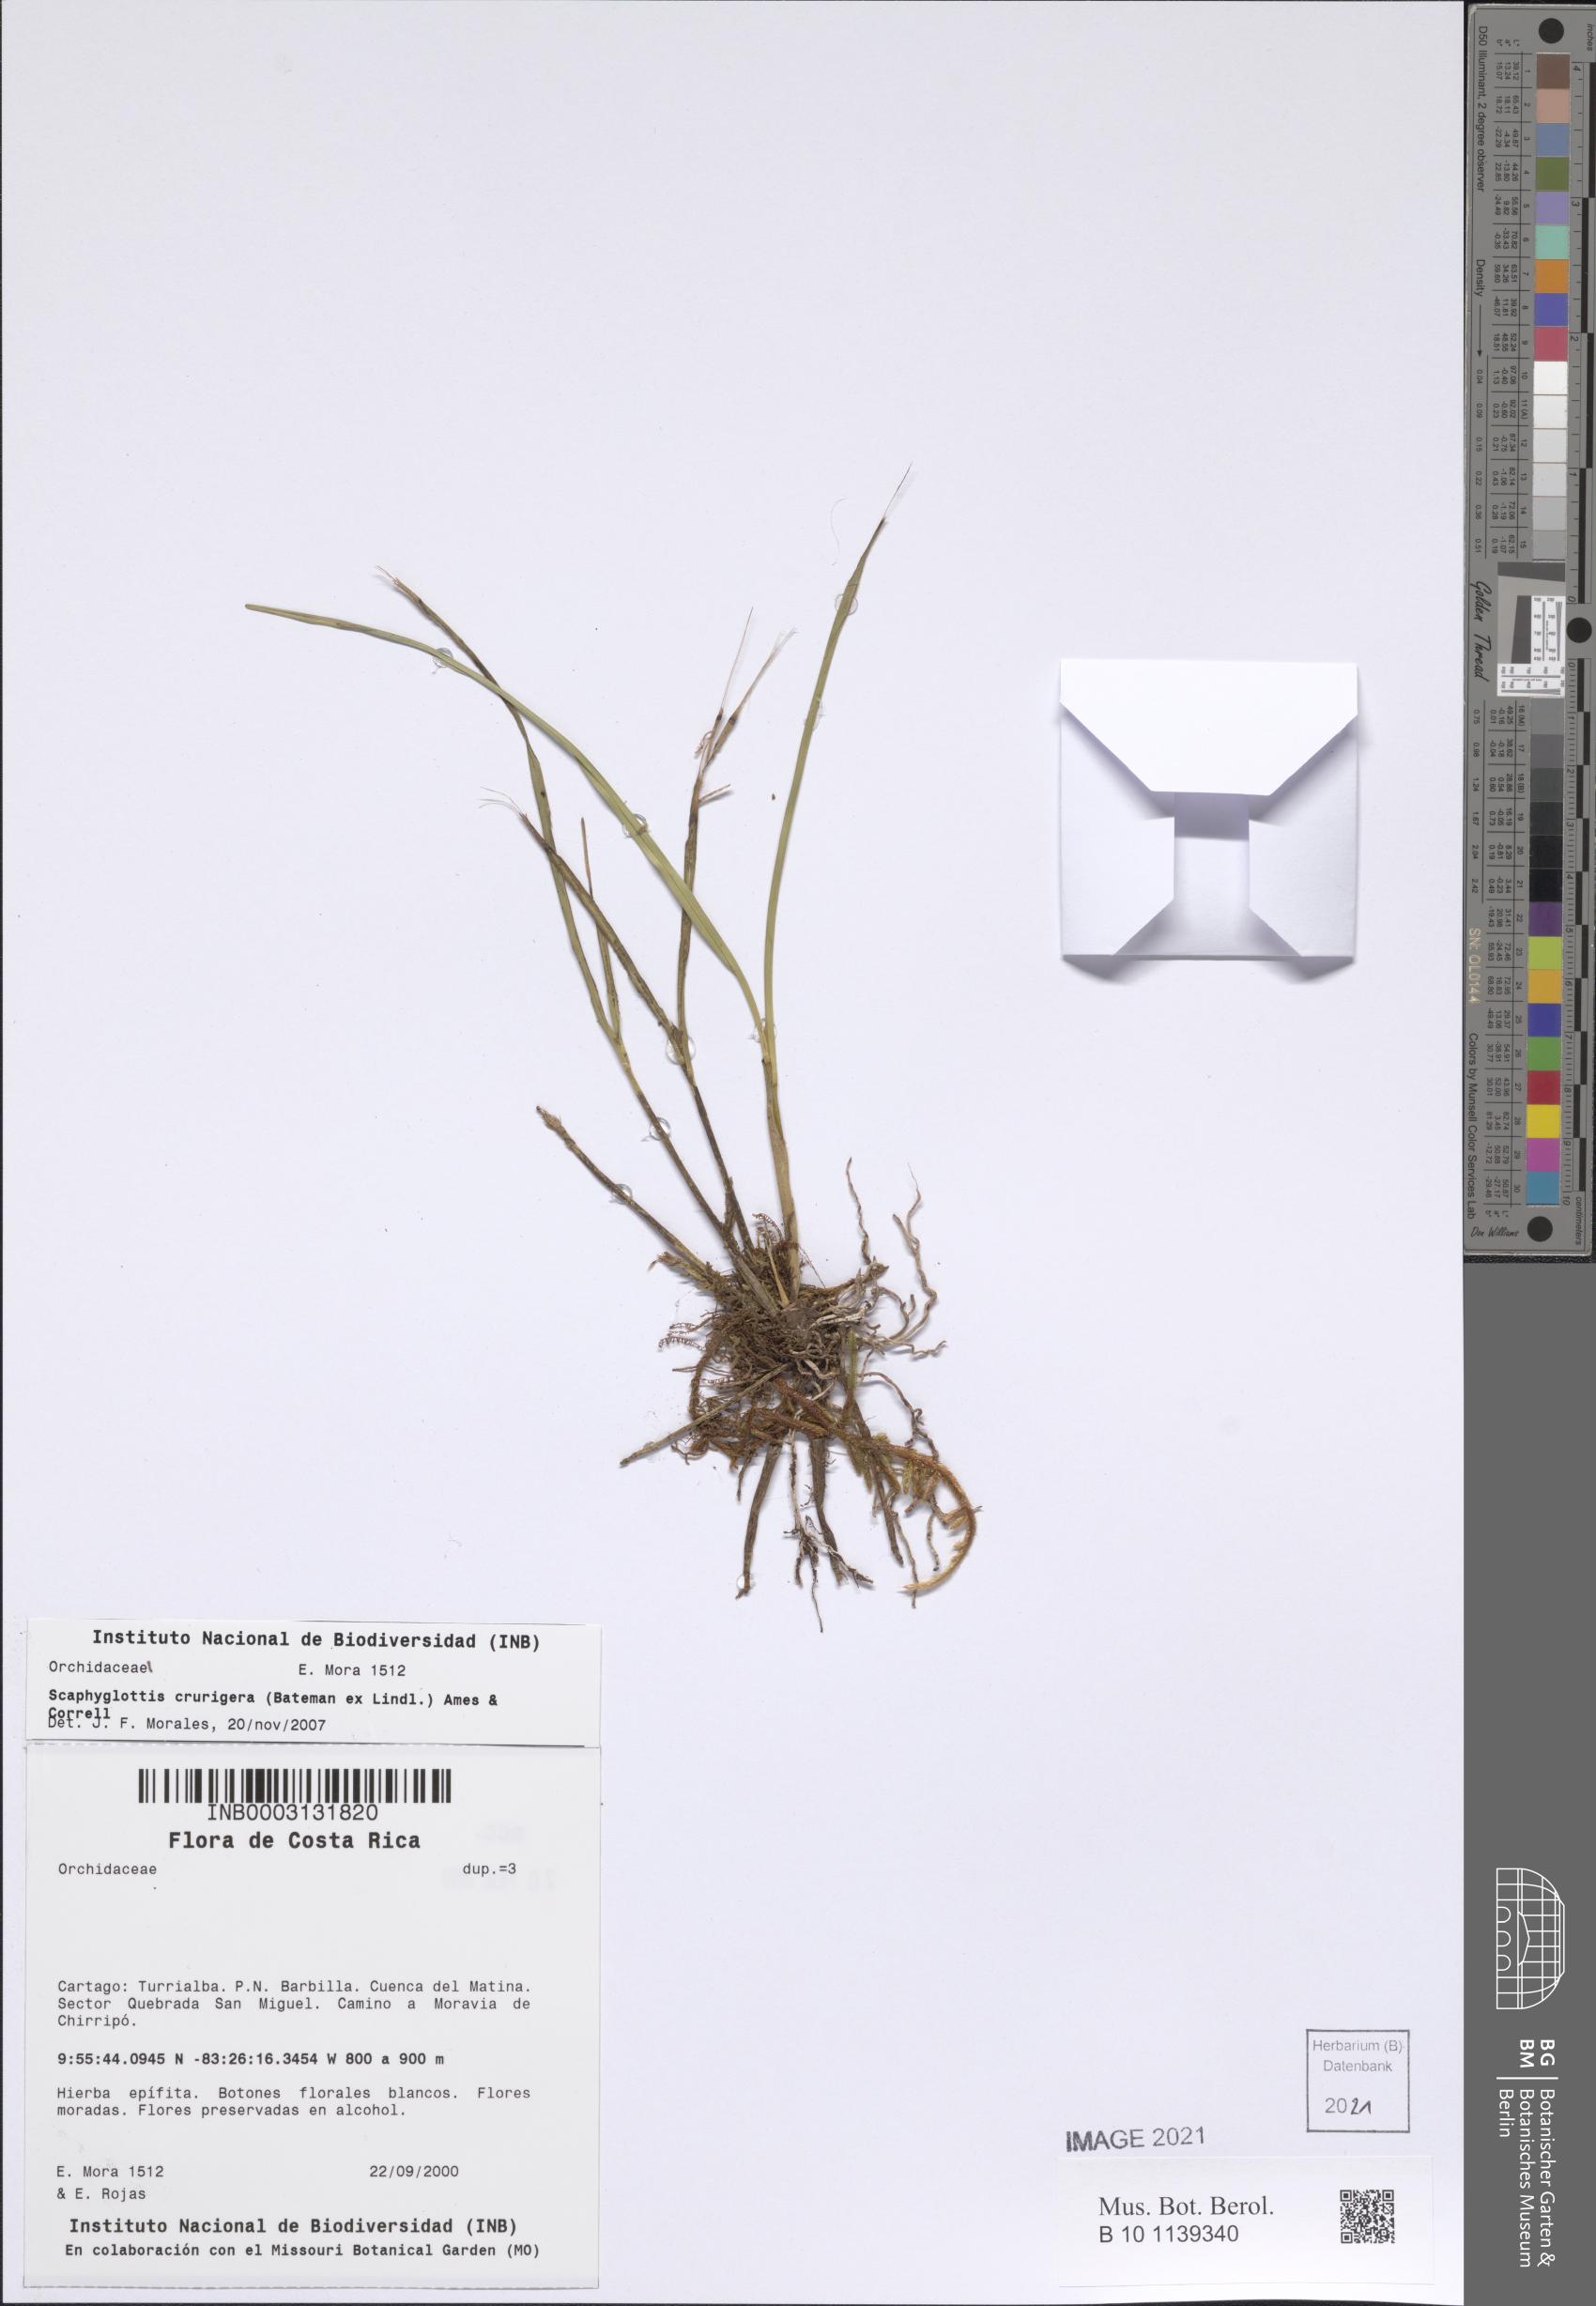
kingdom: Plantae
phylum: Tracheophyta
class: Liliopsida
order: Asparagales
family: Orchidaceae
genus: Scaphyglottis
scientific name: Scaphyglottis crurigera
